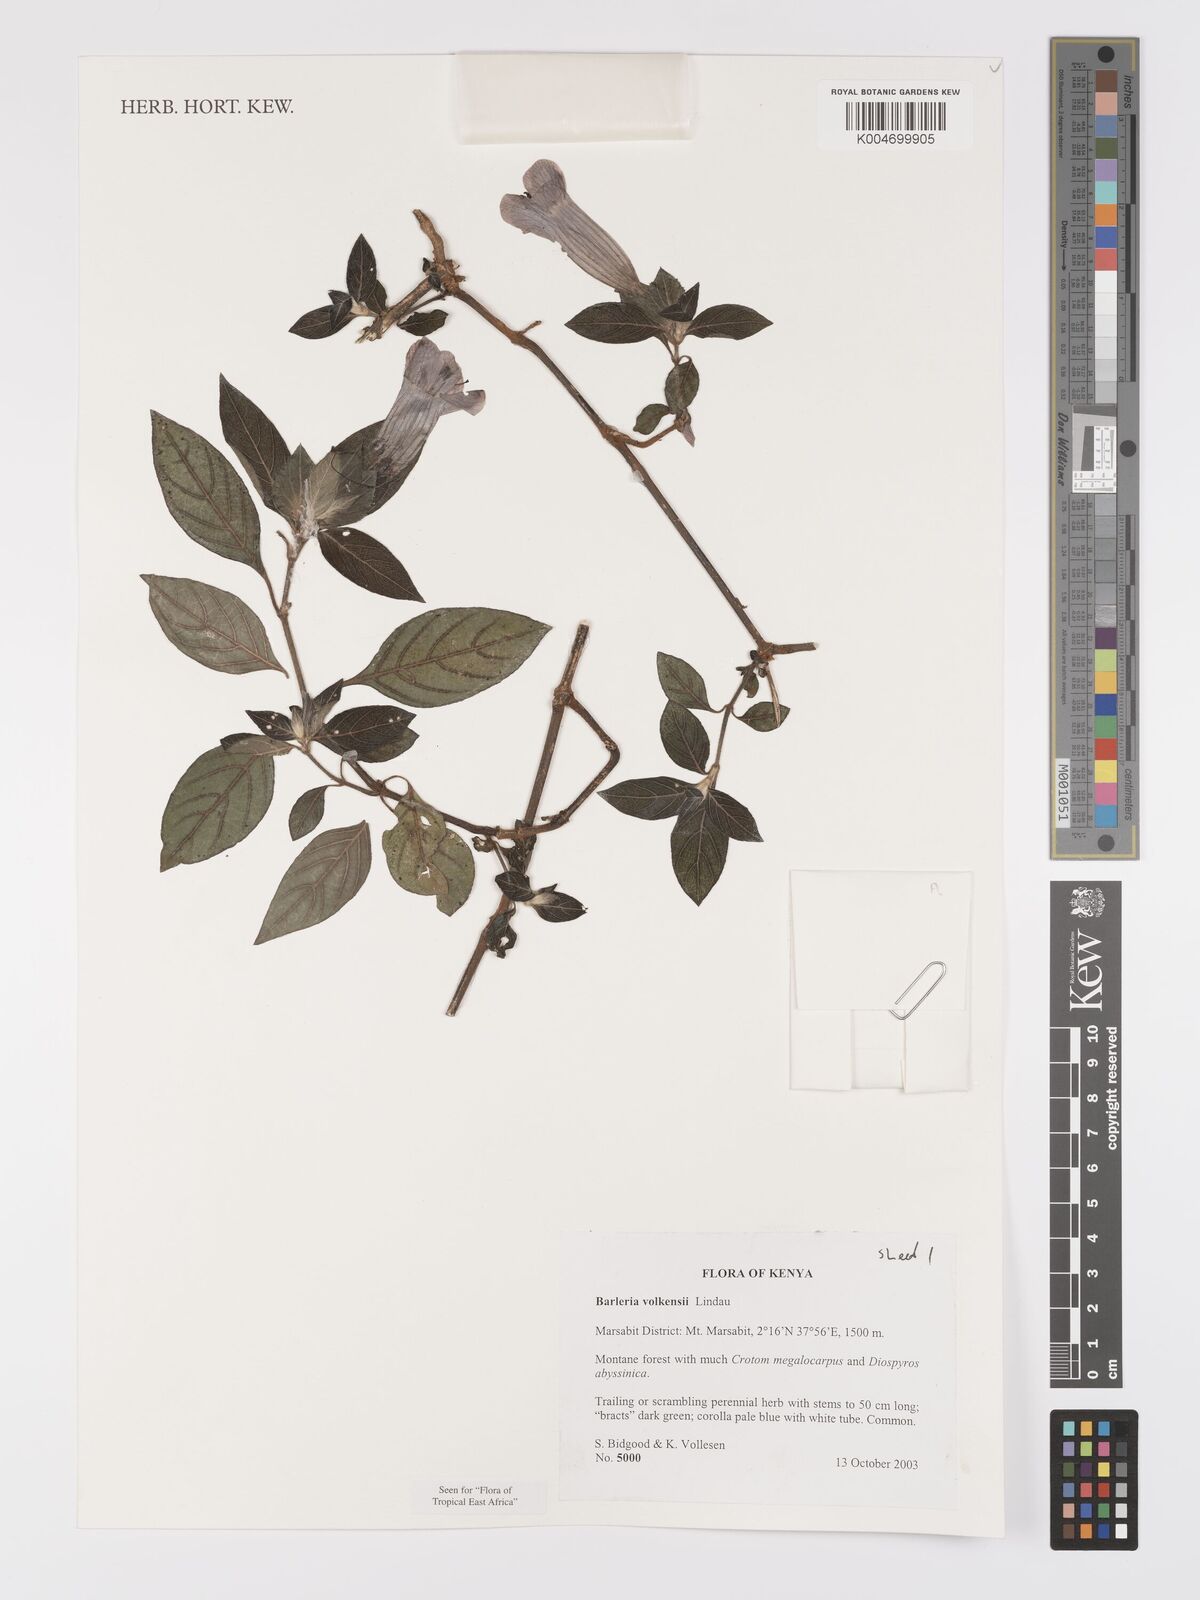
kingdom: Plantae
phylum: Tracheophyta
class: Magnoliopsida
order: Lamiales
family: Acanthaceae
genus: Barleria
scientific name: Barleria volkensii
